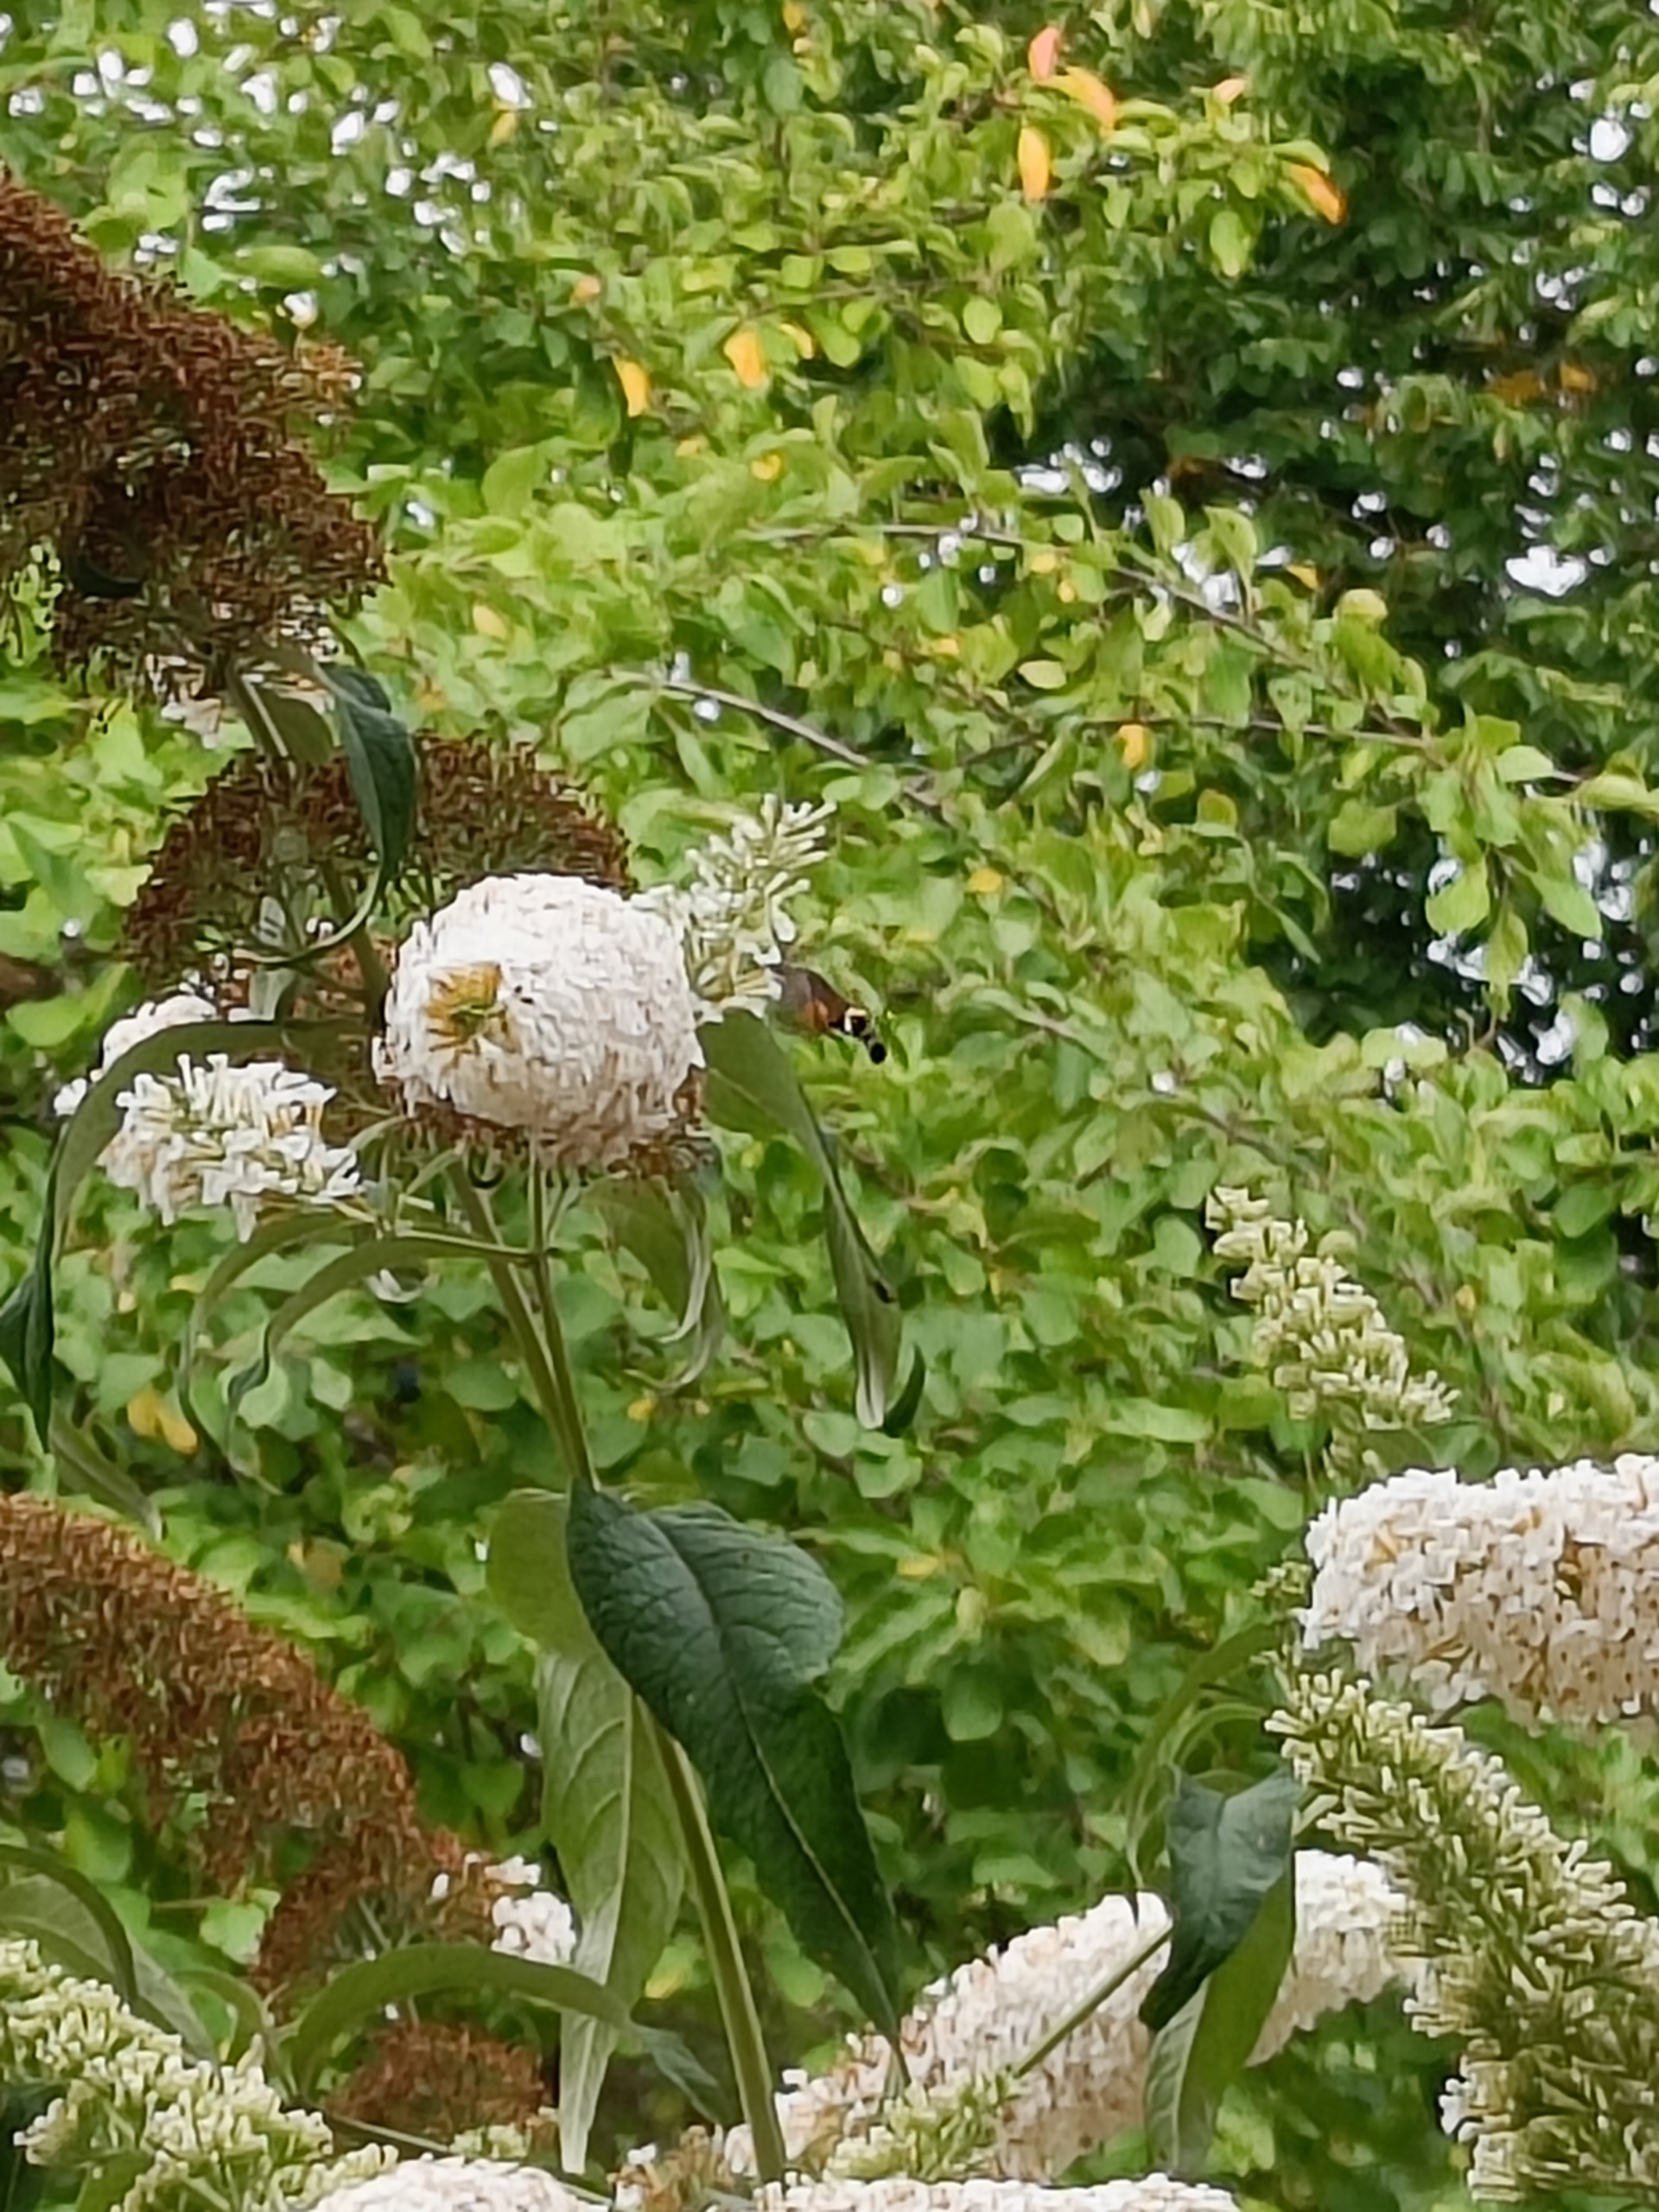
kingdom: Animalia
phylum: Arthropoda
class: Insecta
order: Lepidoptera
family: Sphingidae
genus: Macroglossum
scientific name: Macroglossum stellatarum
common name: Duehale
